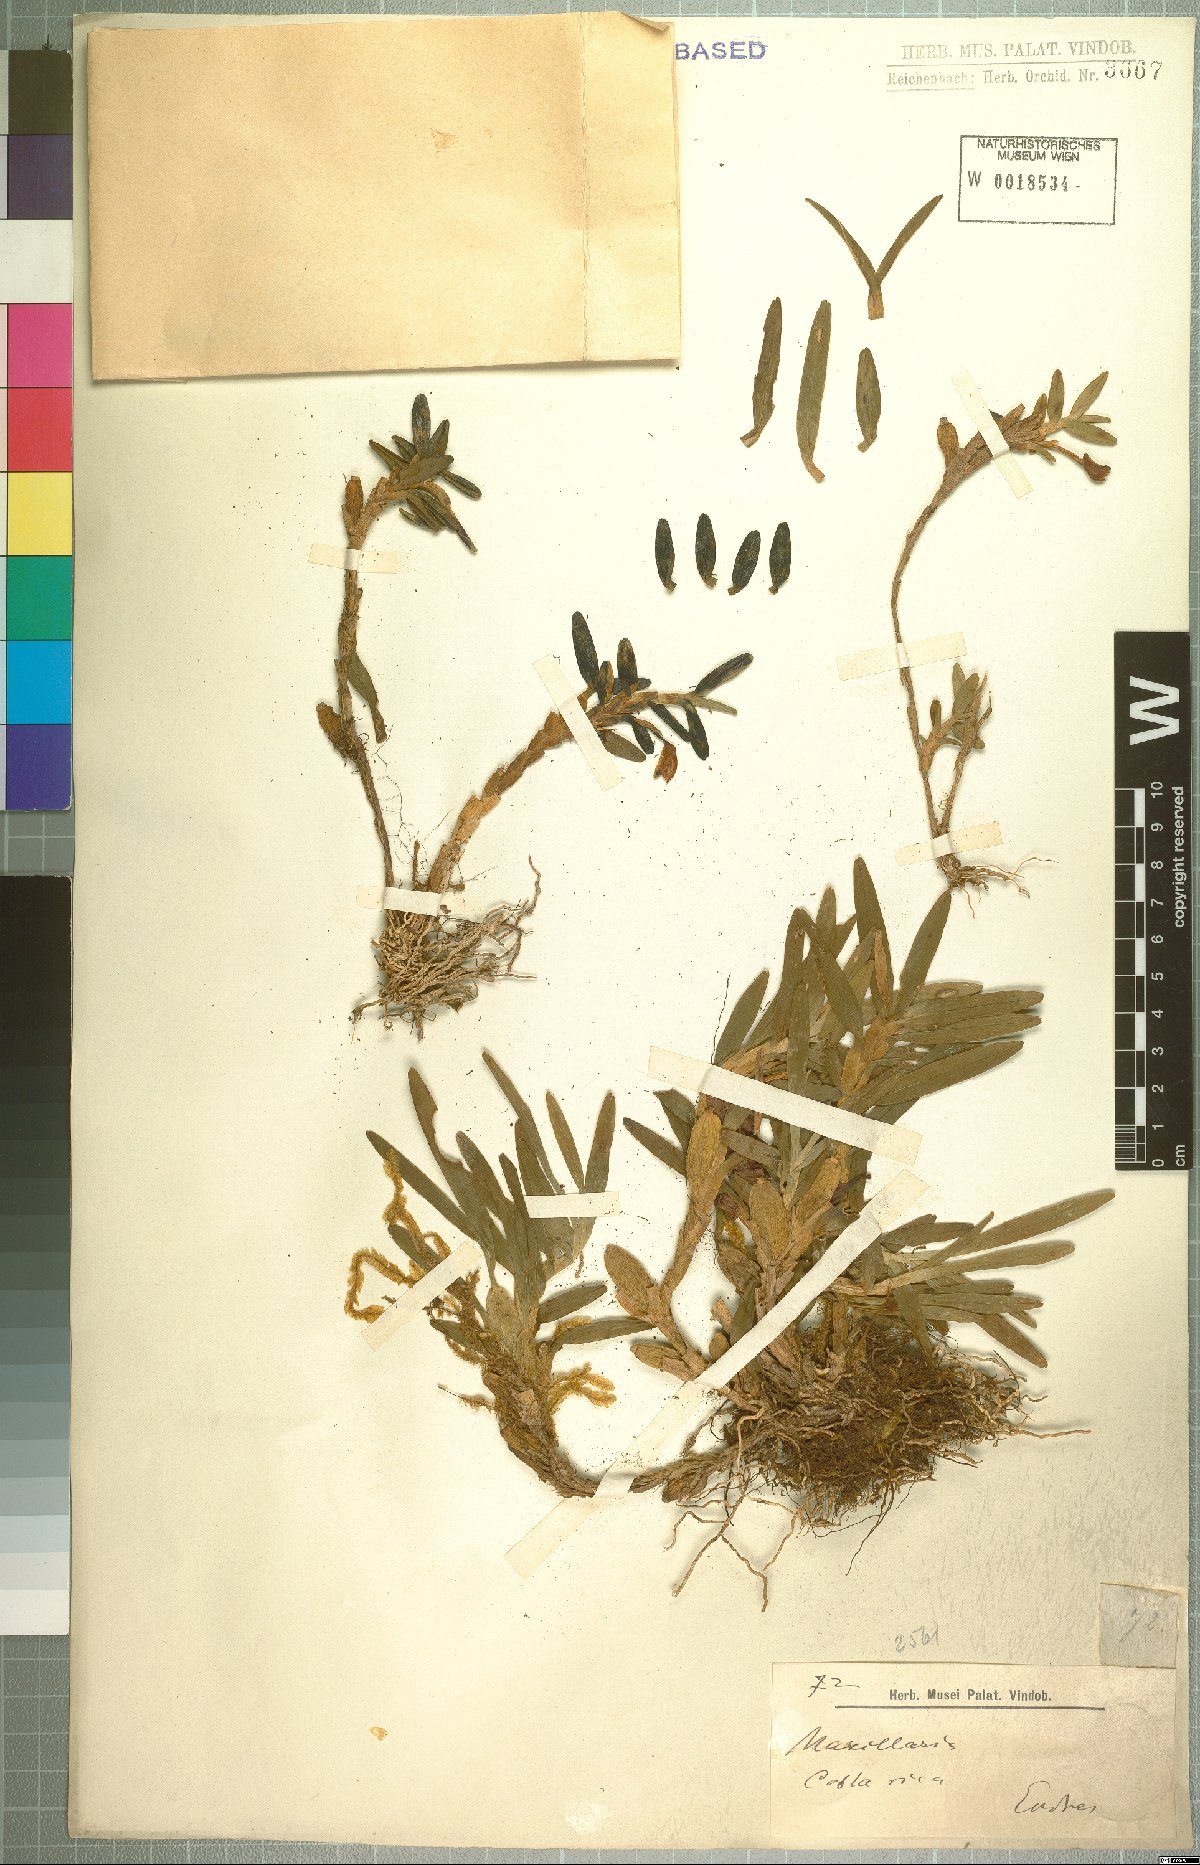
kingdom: Plantae
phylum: Tracheophyta
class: Liliopsida
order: Asparagales
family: Orchidaceae
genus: Maxillaria
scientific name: Maxillaria
